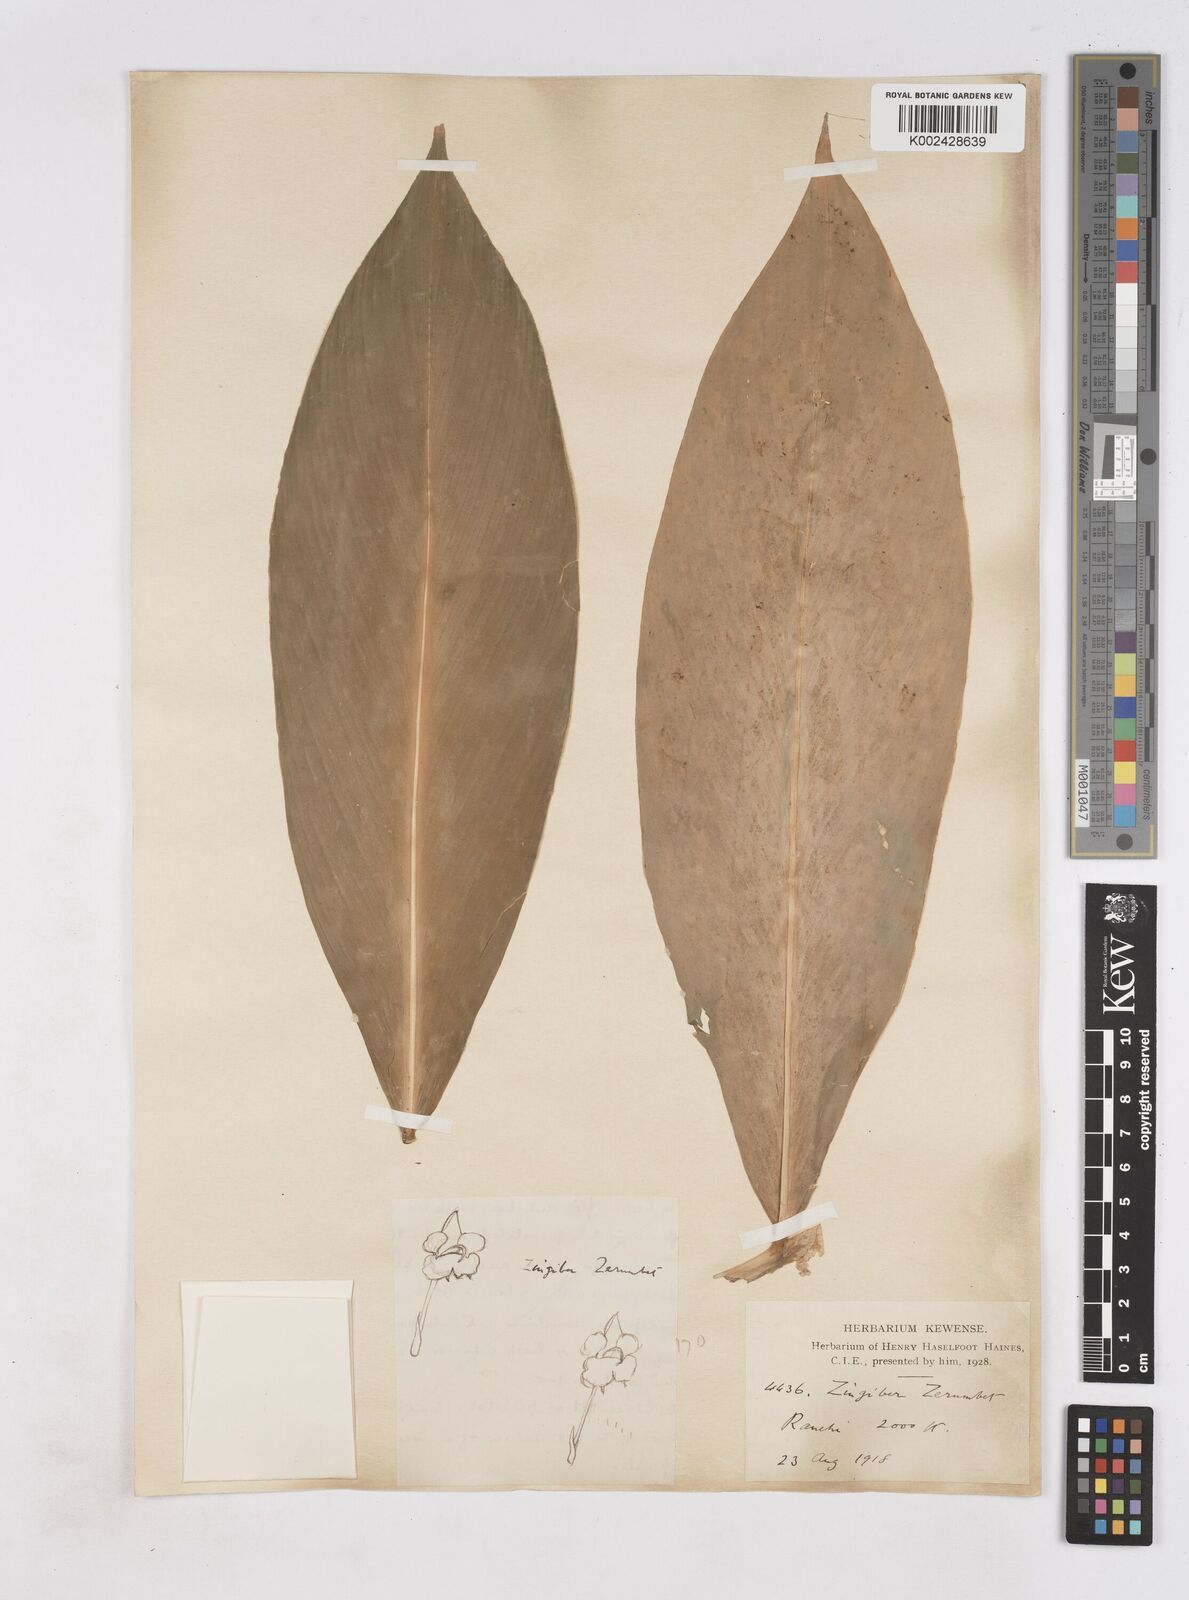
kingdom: Plantae
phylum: Tracheophyta
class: Liliopsida
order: Zingiberales
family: Zingiberaceae
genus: Zingiber
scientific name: Zingiber zerumbet
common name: Bitter ginger
